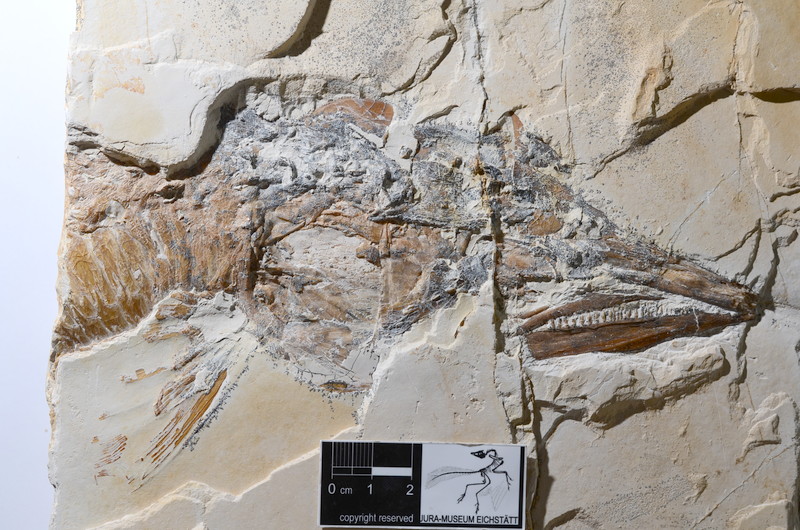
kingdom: Animalia
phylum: Chordata
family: Aspidorhynchidae
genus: Aspidorhynchus
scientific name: Aspidorhynchus acutirostris
